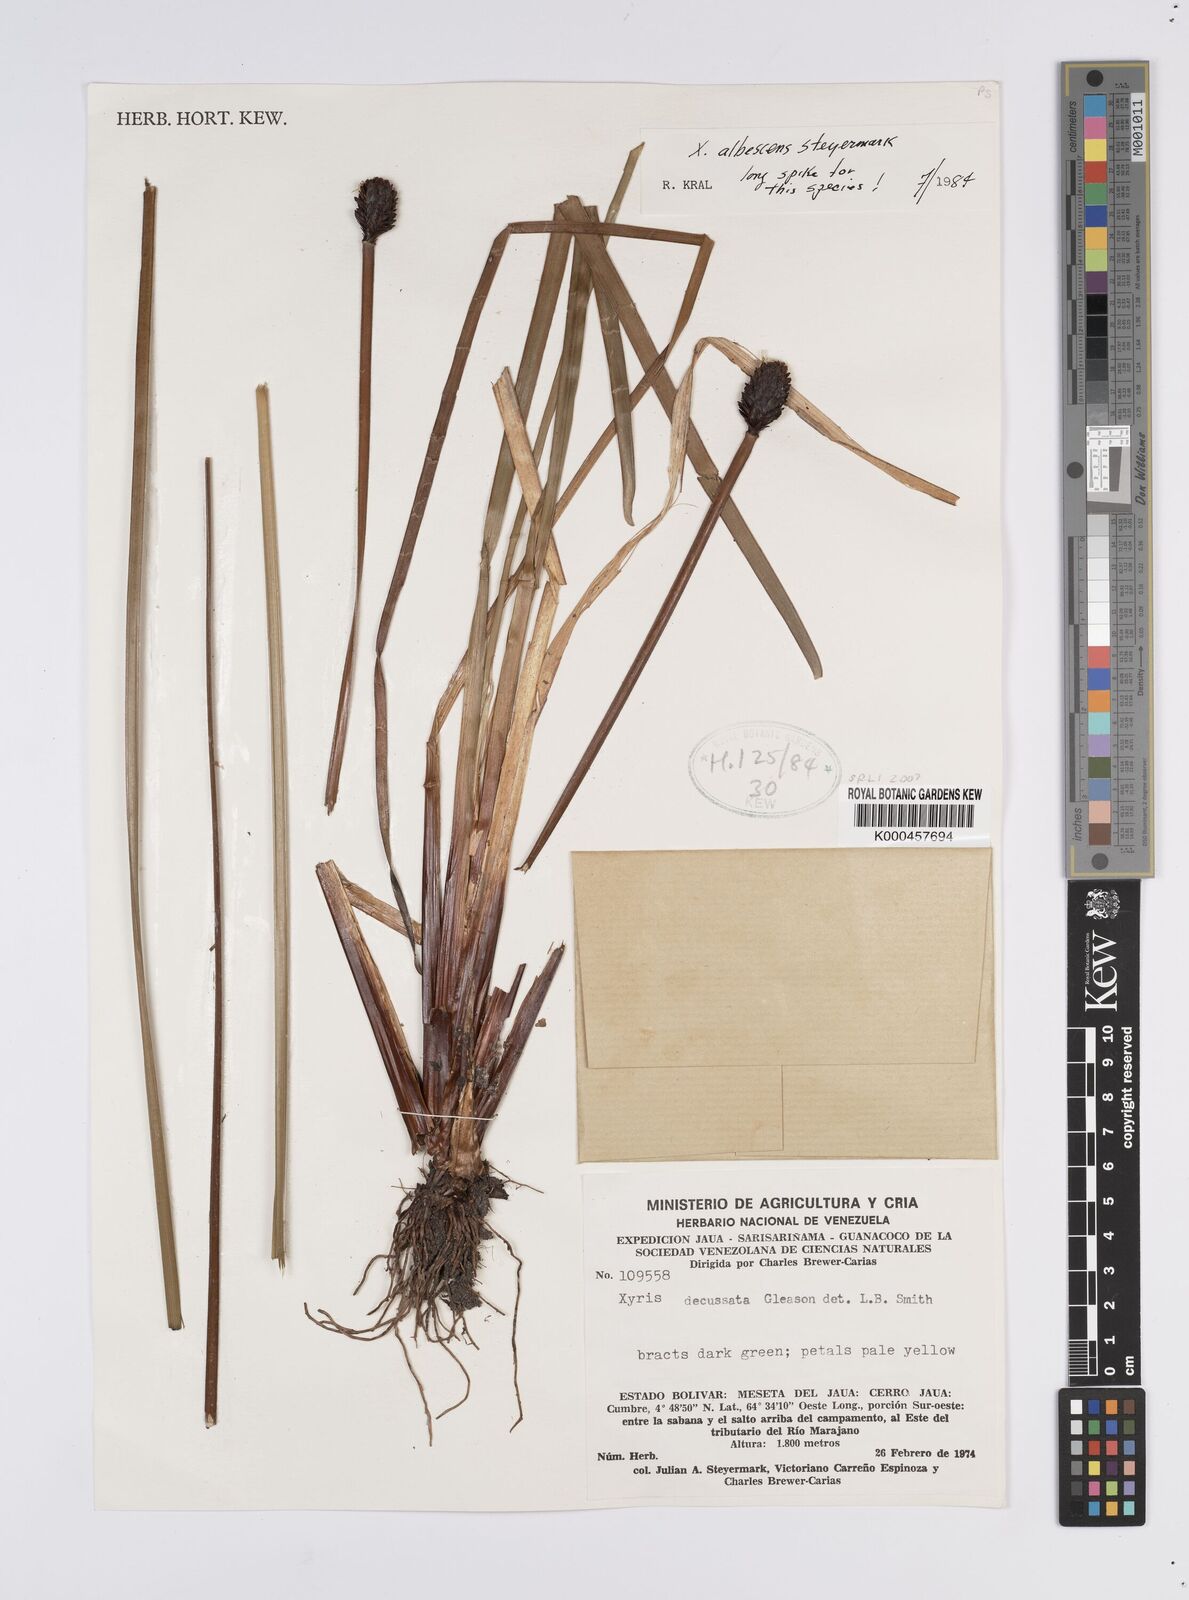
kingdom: Plantae
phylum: Tracheophyta
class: Liliopsida
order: Poales
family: Xyridaceae
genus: Xyris
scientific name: Xyris albescens
